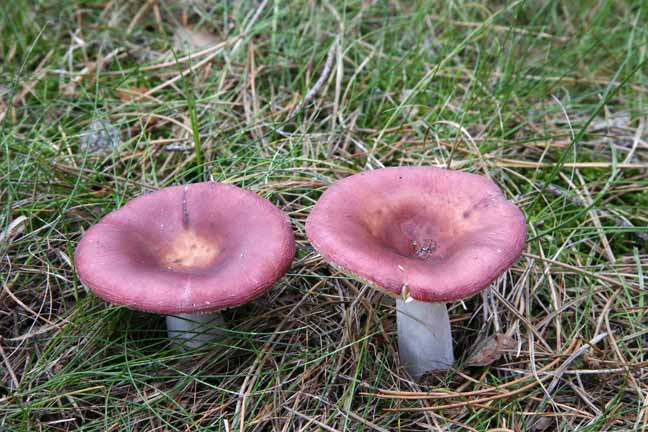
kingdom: Fungi
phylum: Basidiomycota
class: Agaricomycetes
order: Russulales
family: Russulaceae
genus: Russula
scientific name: Russula paludosa
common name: prægtig skørhat
